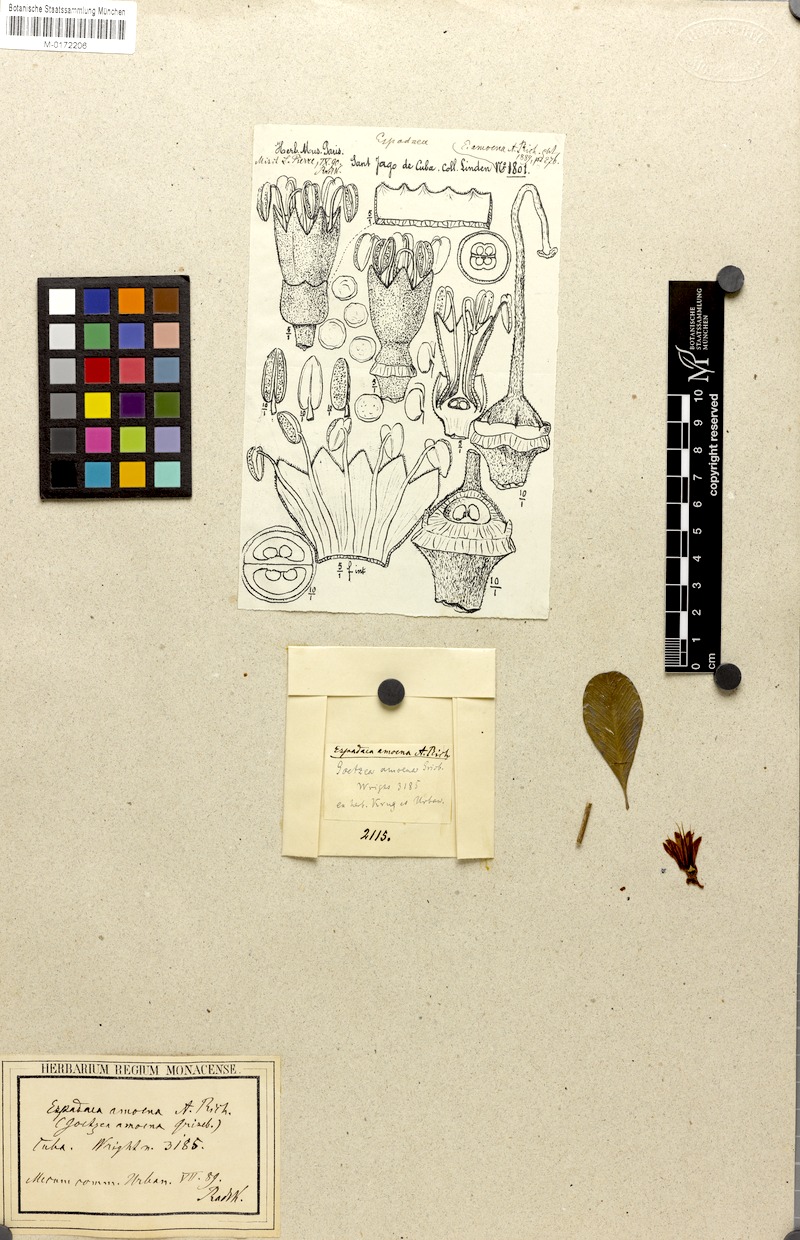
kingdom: Plantae
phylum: Tracheophyta
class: Magnoliopsida
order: Solanales
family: Solanaceae
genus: Espadaea
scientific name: Espadaea amoena
